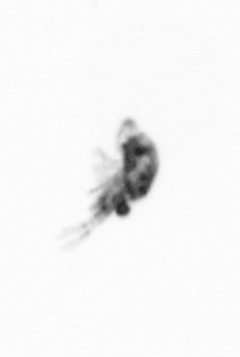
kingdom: Animalia
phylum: Arthropoda
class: Copepoda
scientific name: Copepoda
